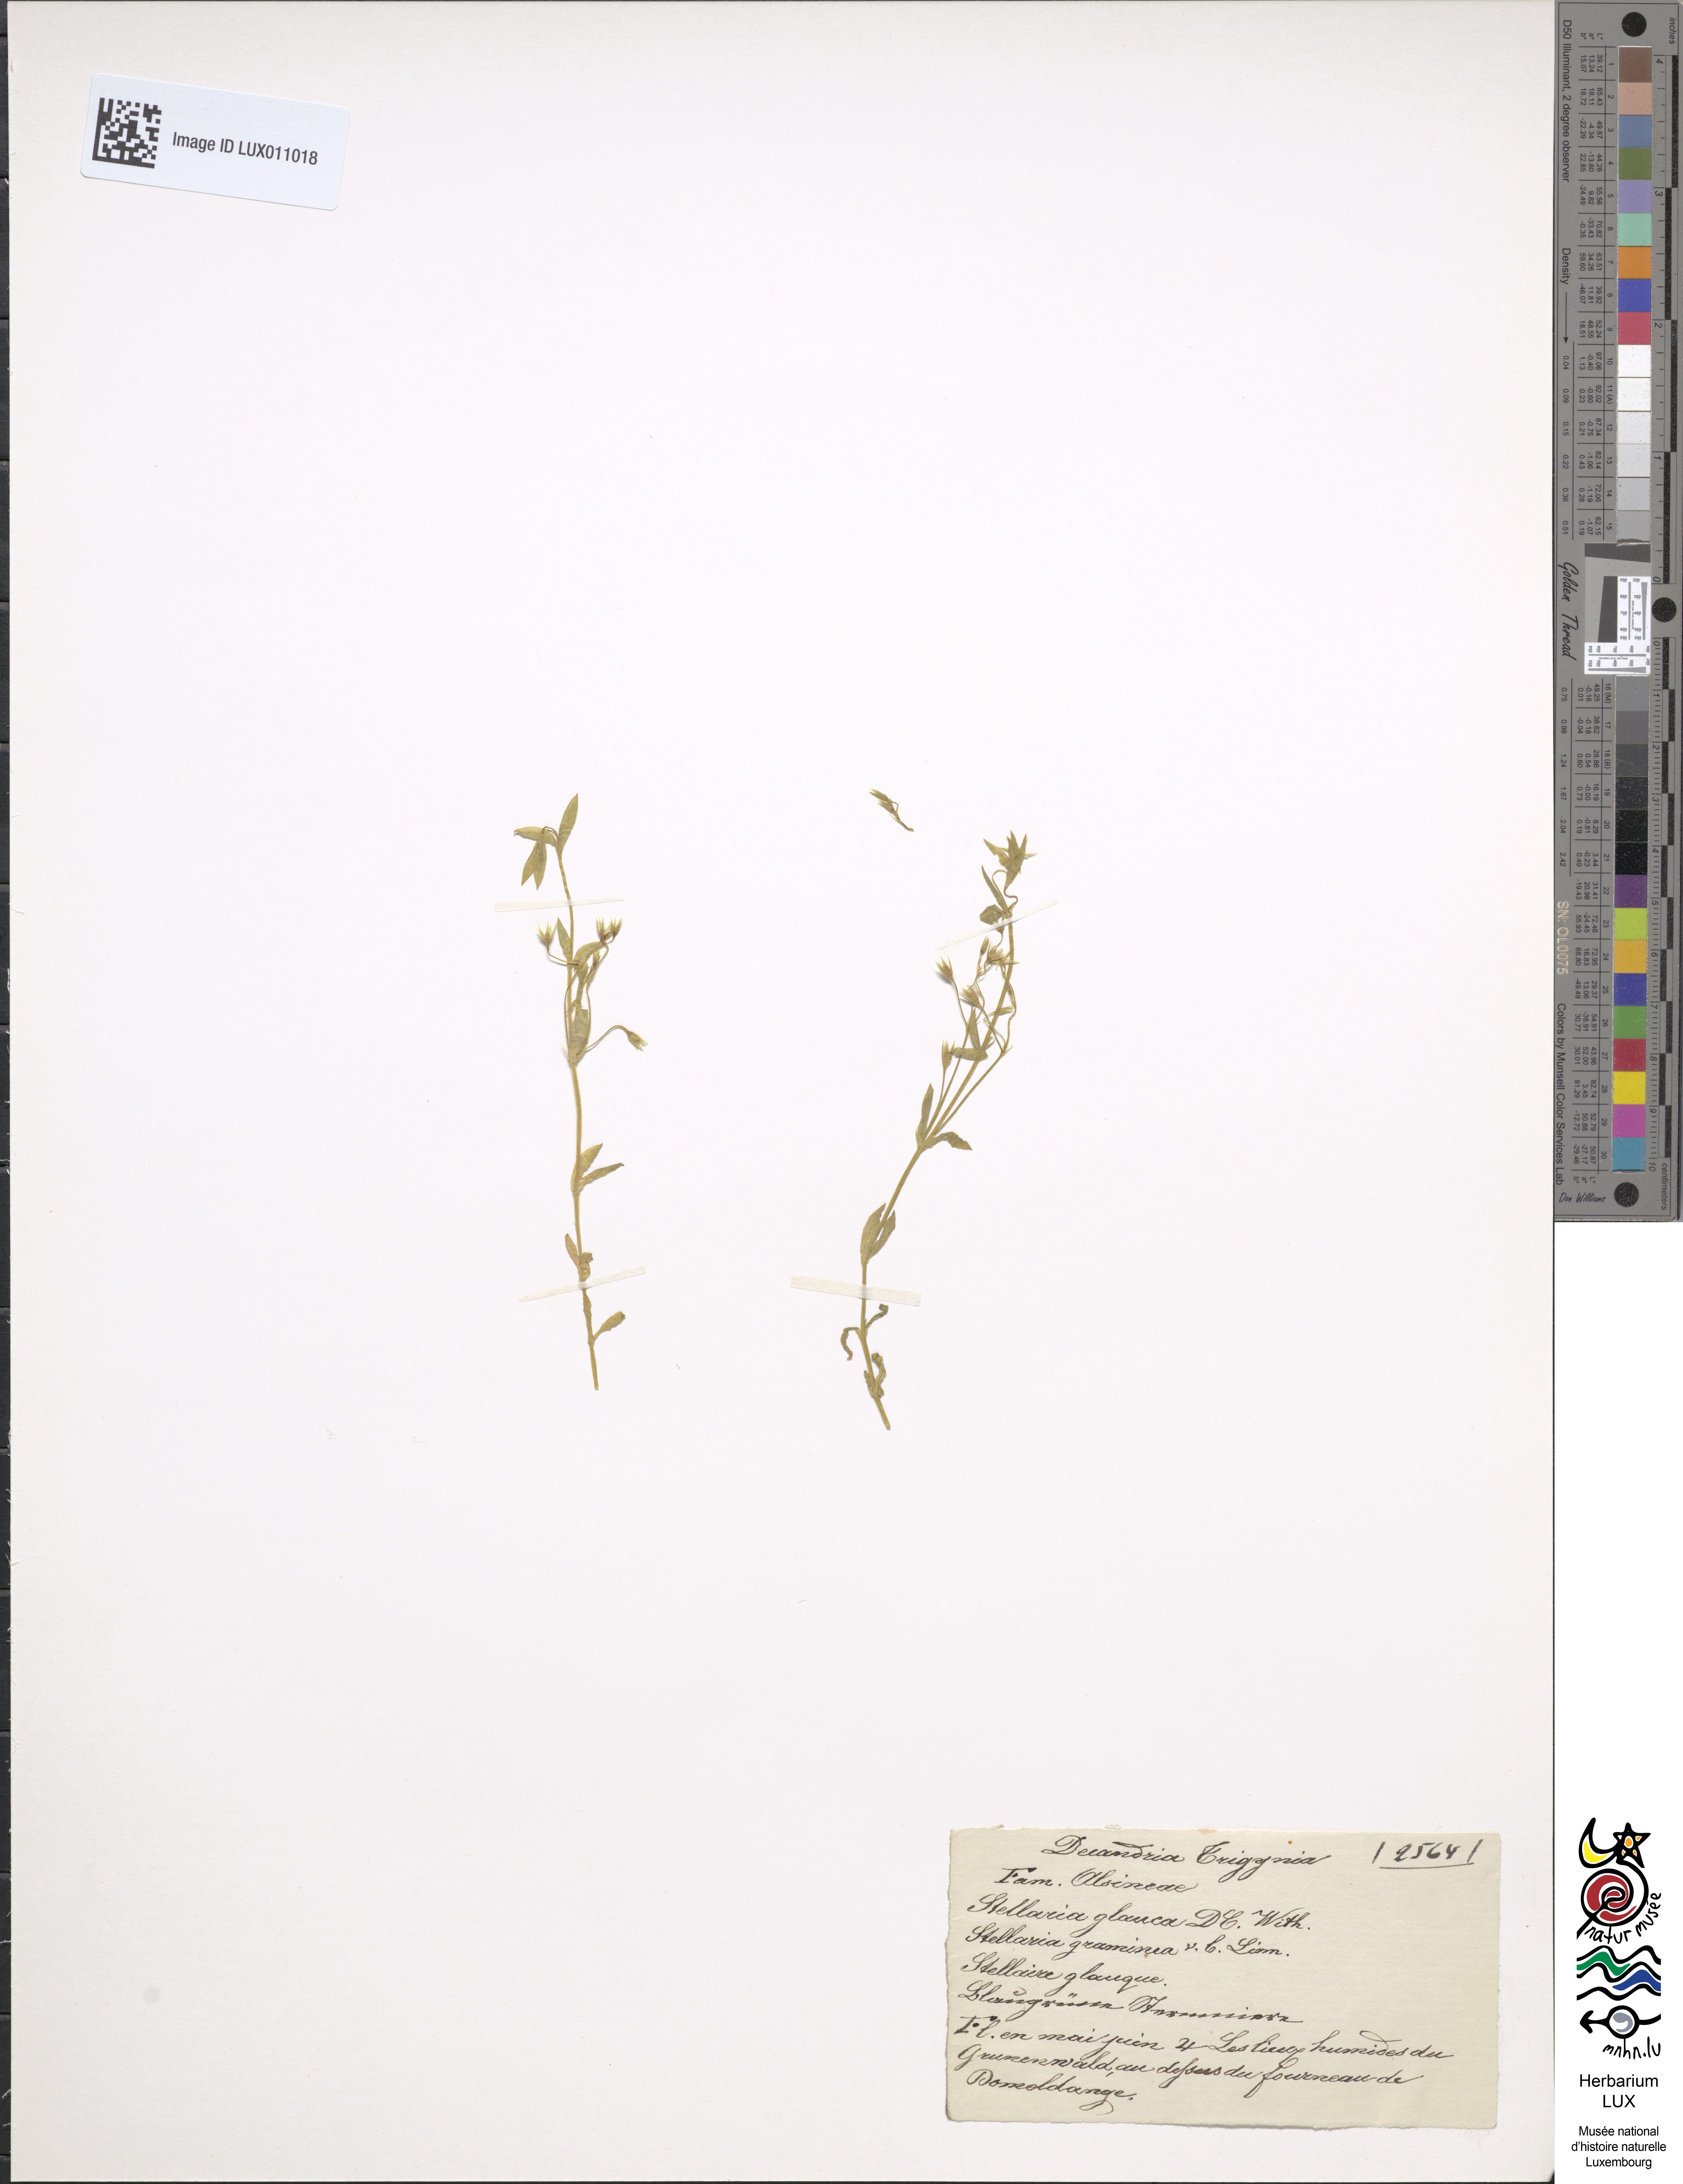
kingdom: Plantae
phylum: Tracheophyta
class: Magnoliopsida
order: Caryophyllales
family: Caryophyllaceae
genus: Stellaria
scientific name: Stellaria palustris
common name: Marsh stitchwort
